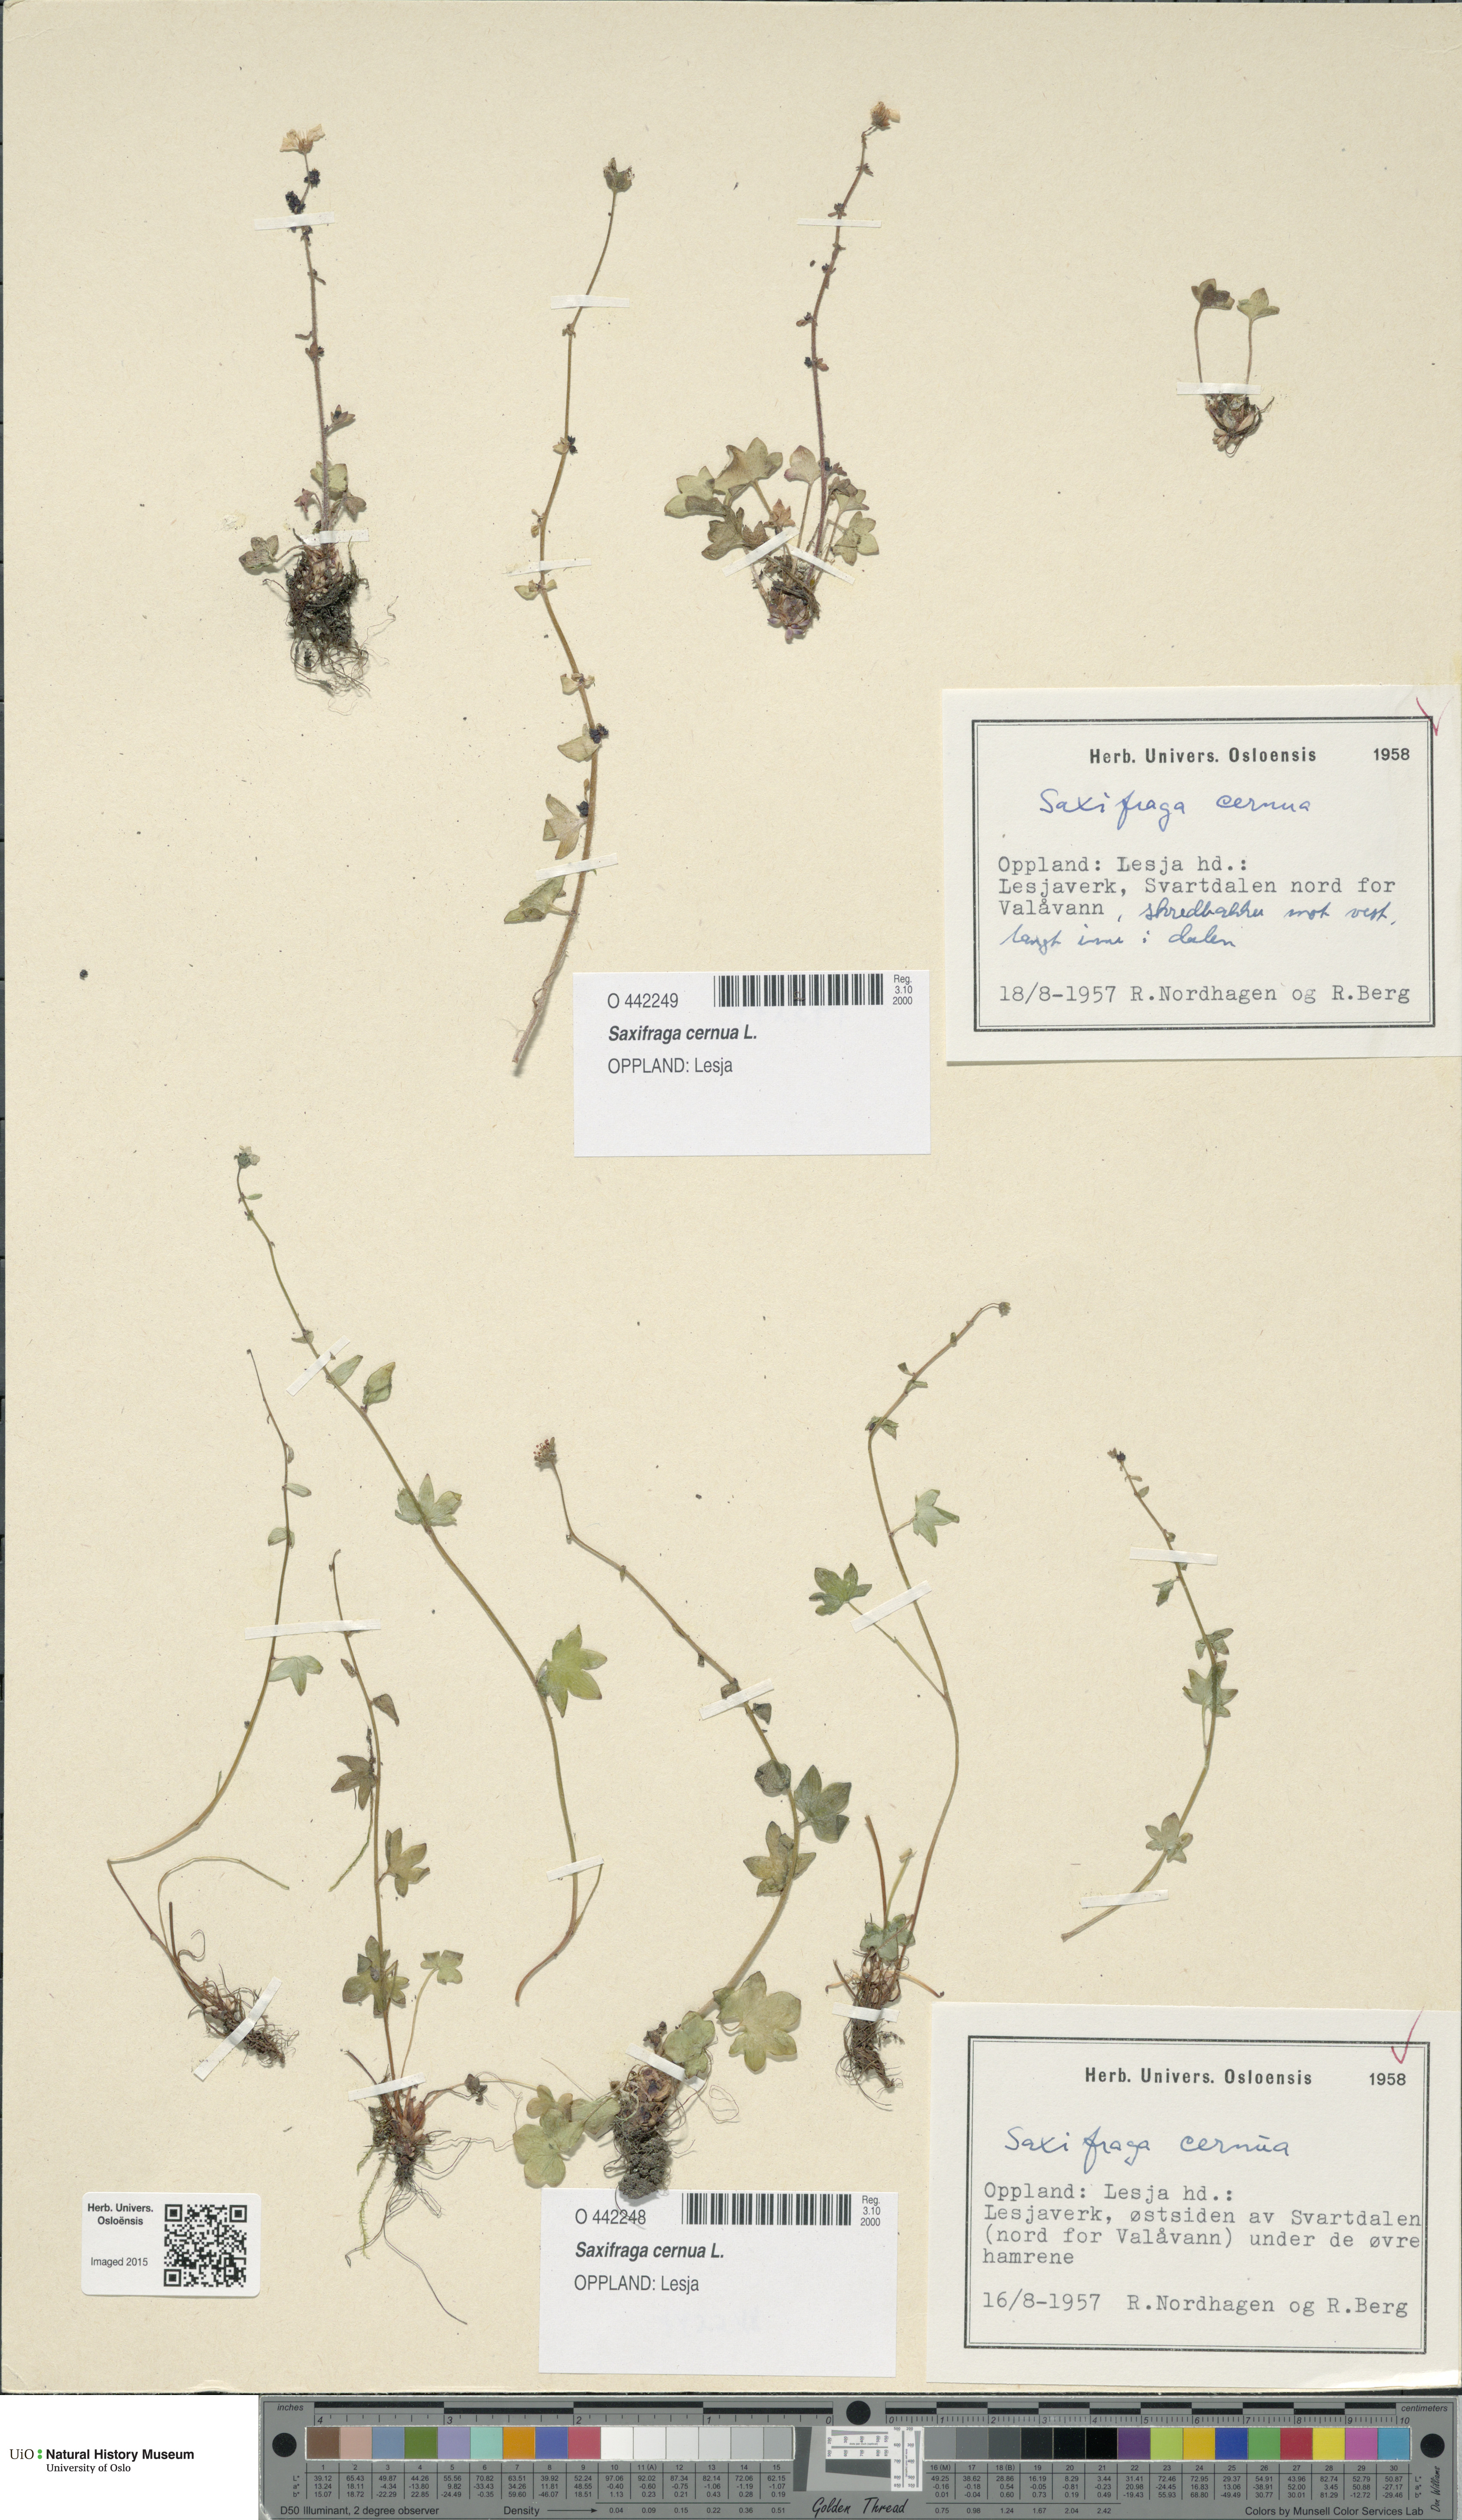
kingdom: Plantae
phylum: Tracheophyta
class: Magnoliopsida
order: Saxifragales
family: Saxifragaceae
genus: Saxifraga
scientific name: Saxifraga cernua
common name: Drooping saxifrage
